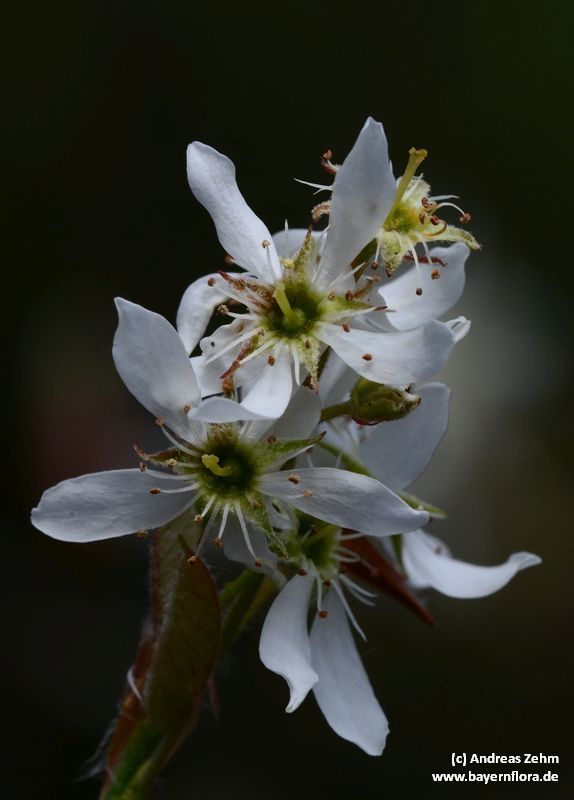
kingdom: Plantae
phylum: Tracheophyta
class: Magnoliopsida
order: Rosales
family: Rosaceae
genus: Amelanchier
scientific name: Amelanchier lamarckii
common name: Juneberry
